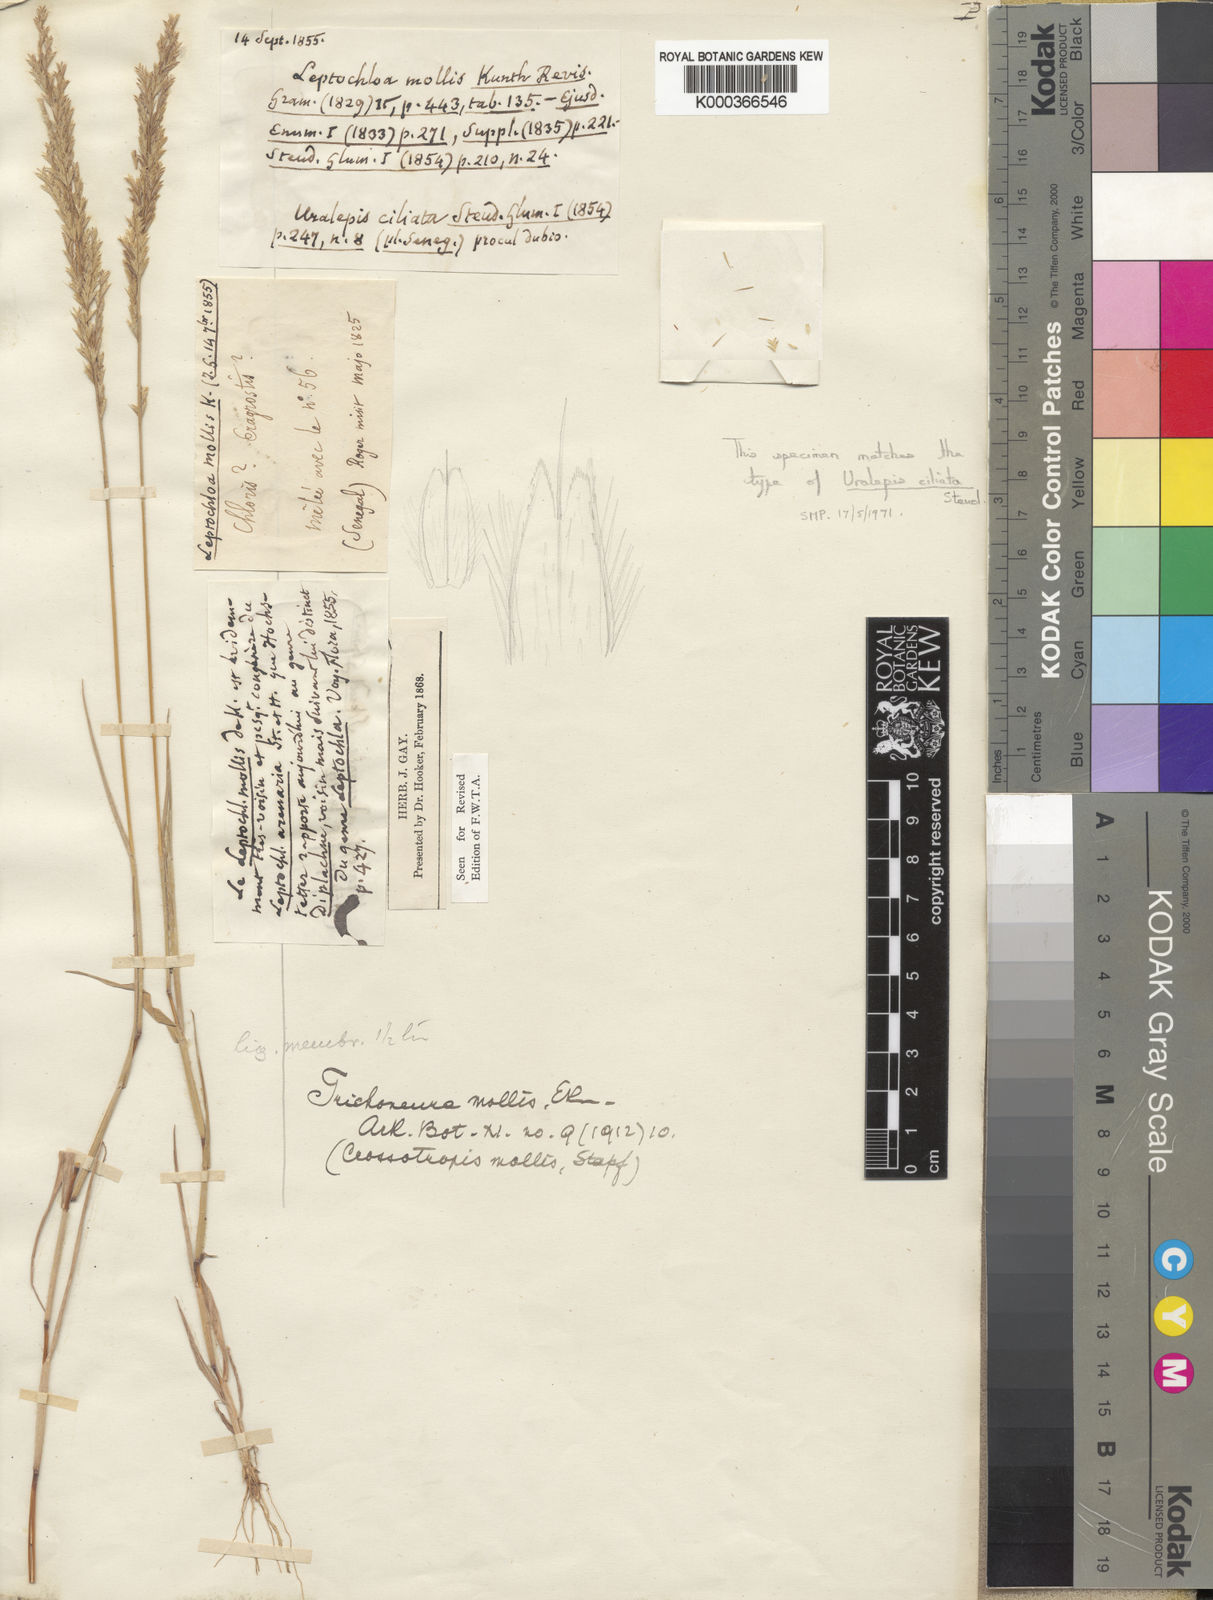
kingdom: Plantae
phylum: Tracheophyta
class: Liliopsida
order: Poales
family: Poaceae
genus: Trichoneura
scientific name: Trichoneura mollis
